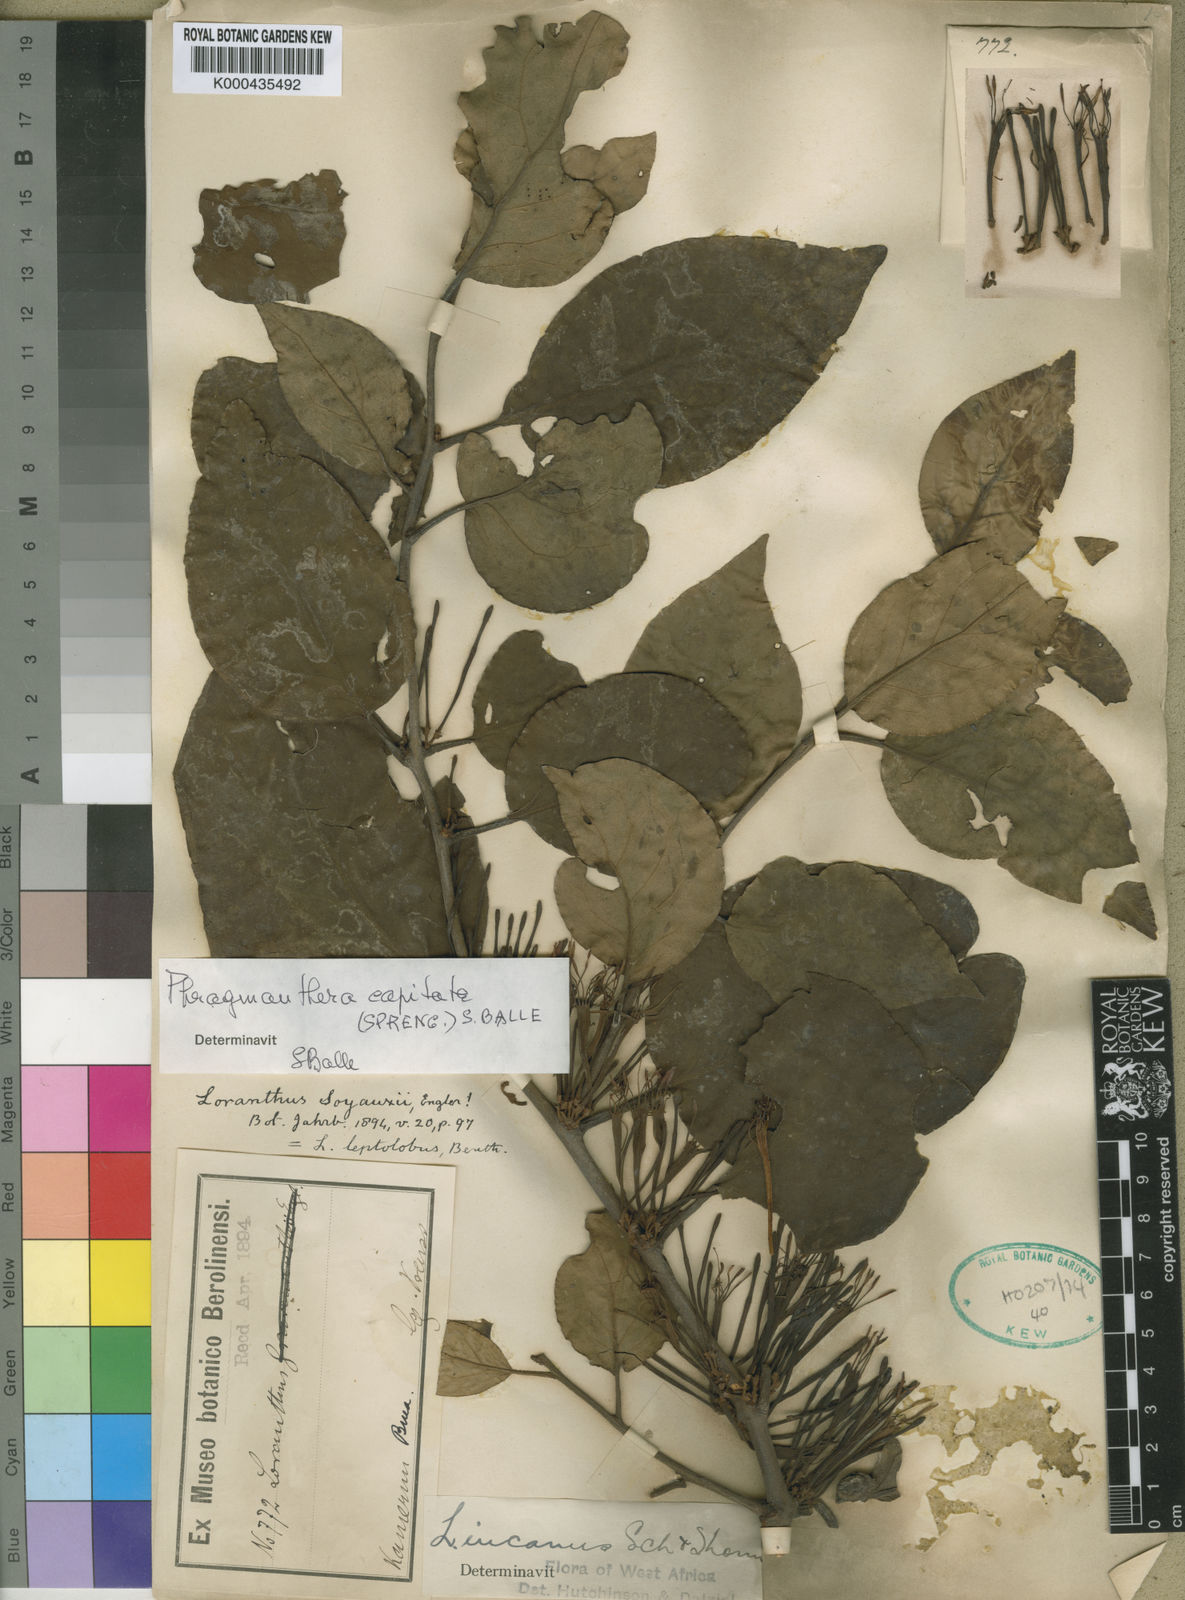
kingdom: Plantae
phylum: Tracheophyta
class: Magnoliopsida
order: Santalales
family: Loranthaceae
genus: Phragmanthera
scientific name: Phragmanthera capitata
